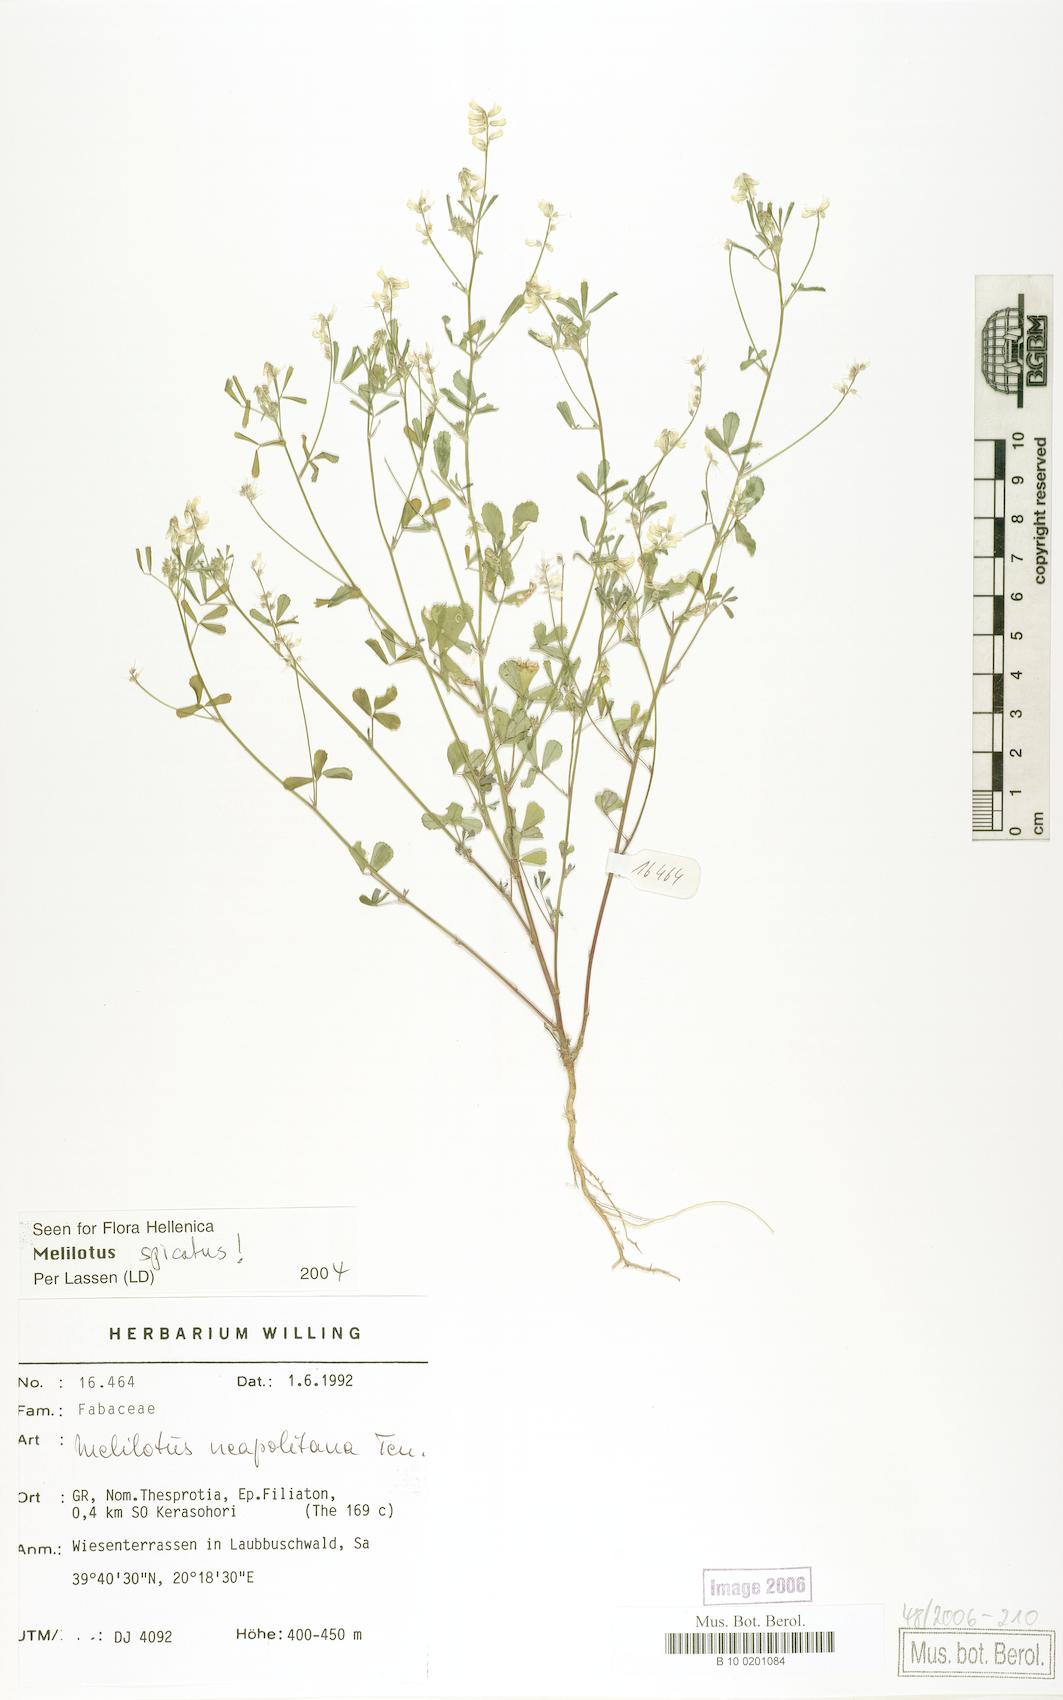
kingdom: Plantae
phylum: Tracheophyta
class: Magnoliopsida
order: Fabales
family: Fabaceae
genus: Melilotus
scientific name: Melilotus neapolitanus
